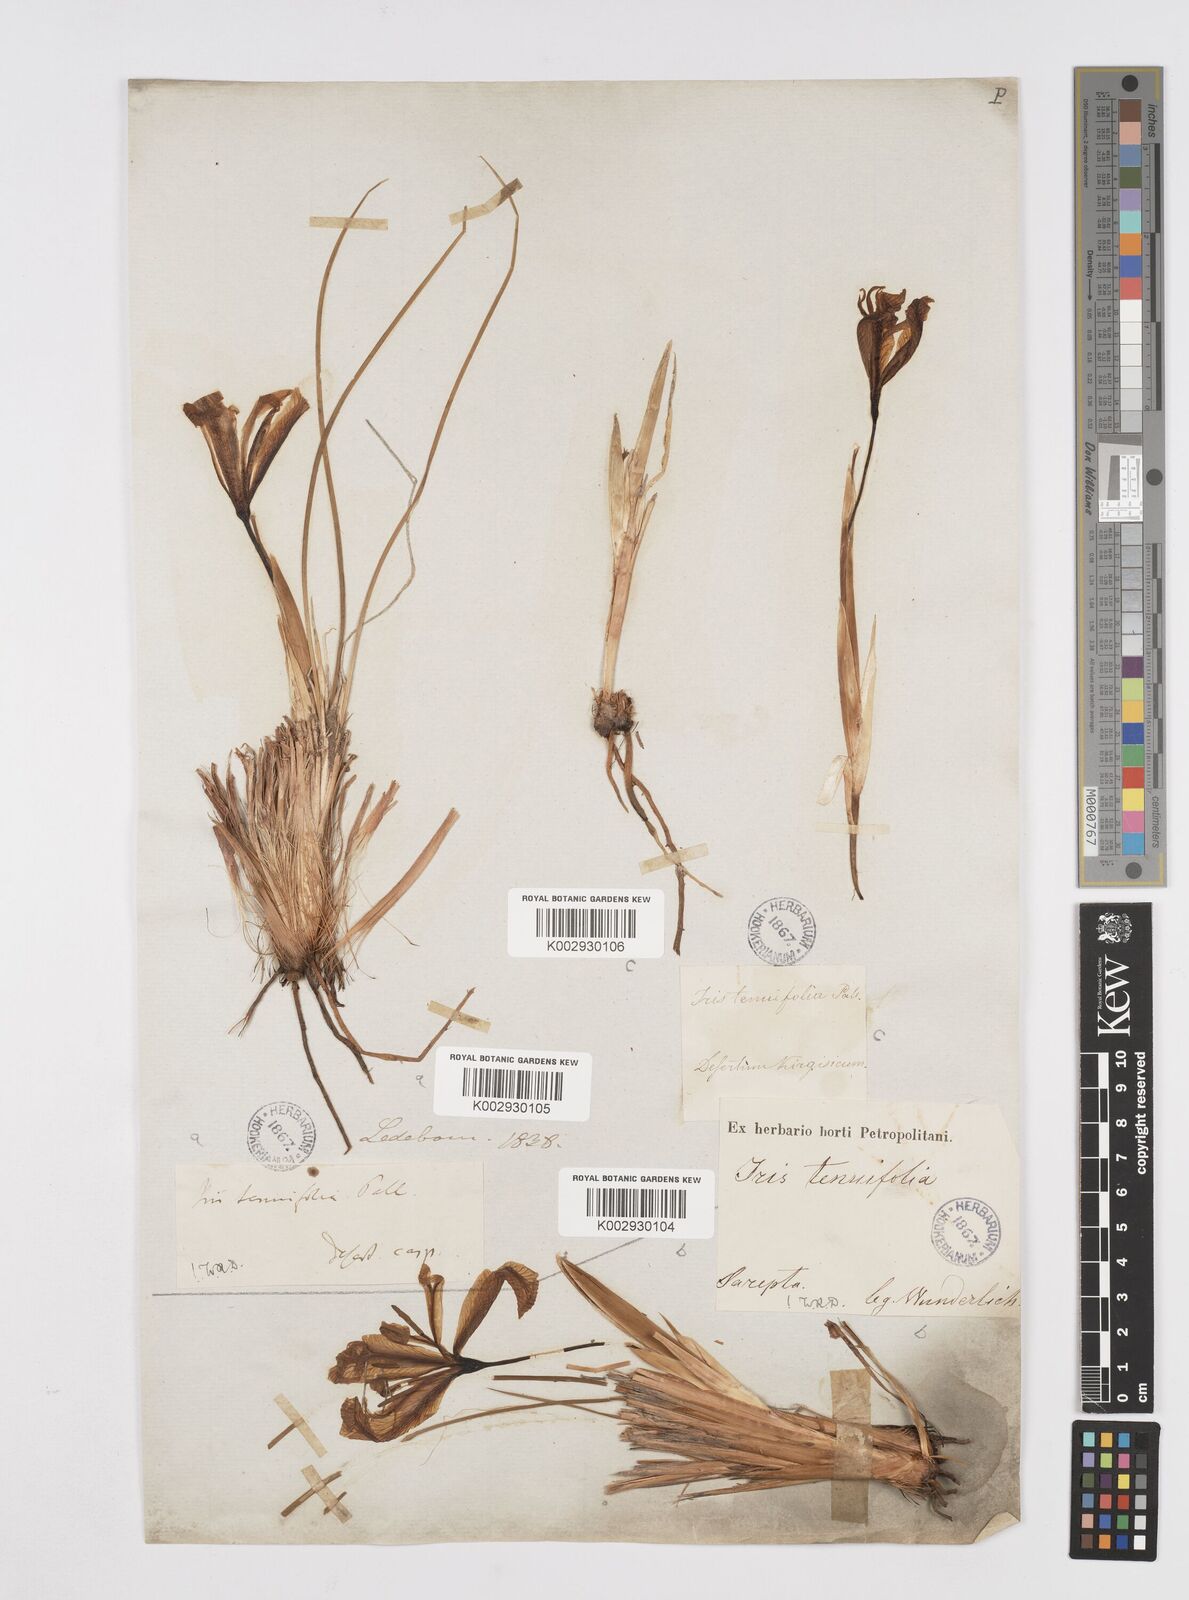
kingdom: Plantae
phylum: Tracheophyta
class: Liliopsida
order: Asparagales
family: Iridaceae
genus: Iris
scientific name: Iris tenuifolia
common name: Slender-leaf iris
